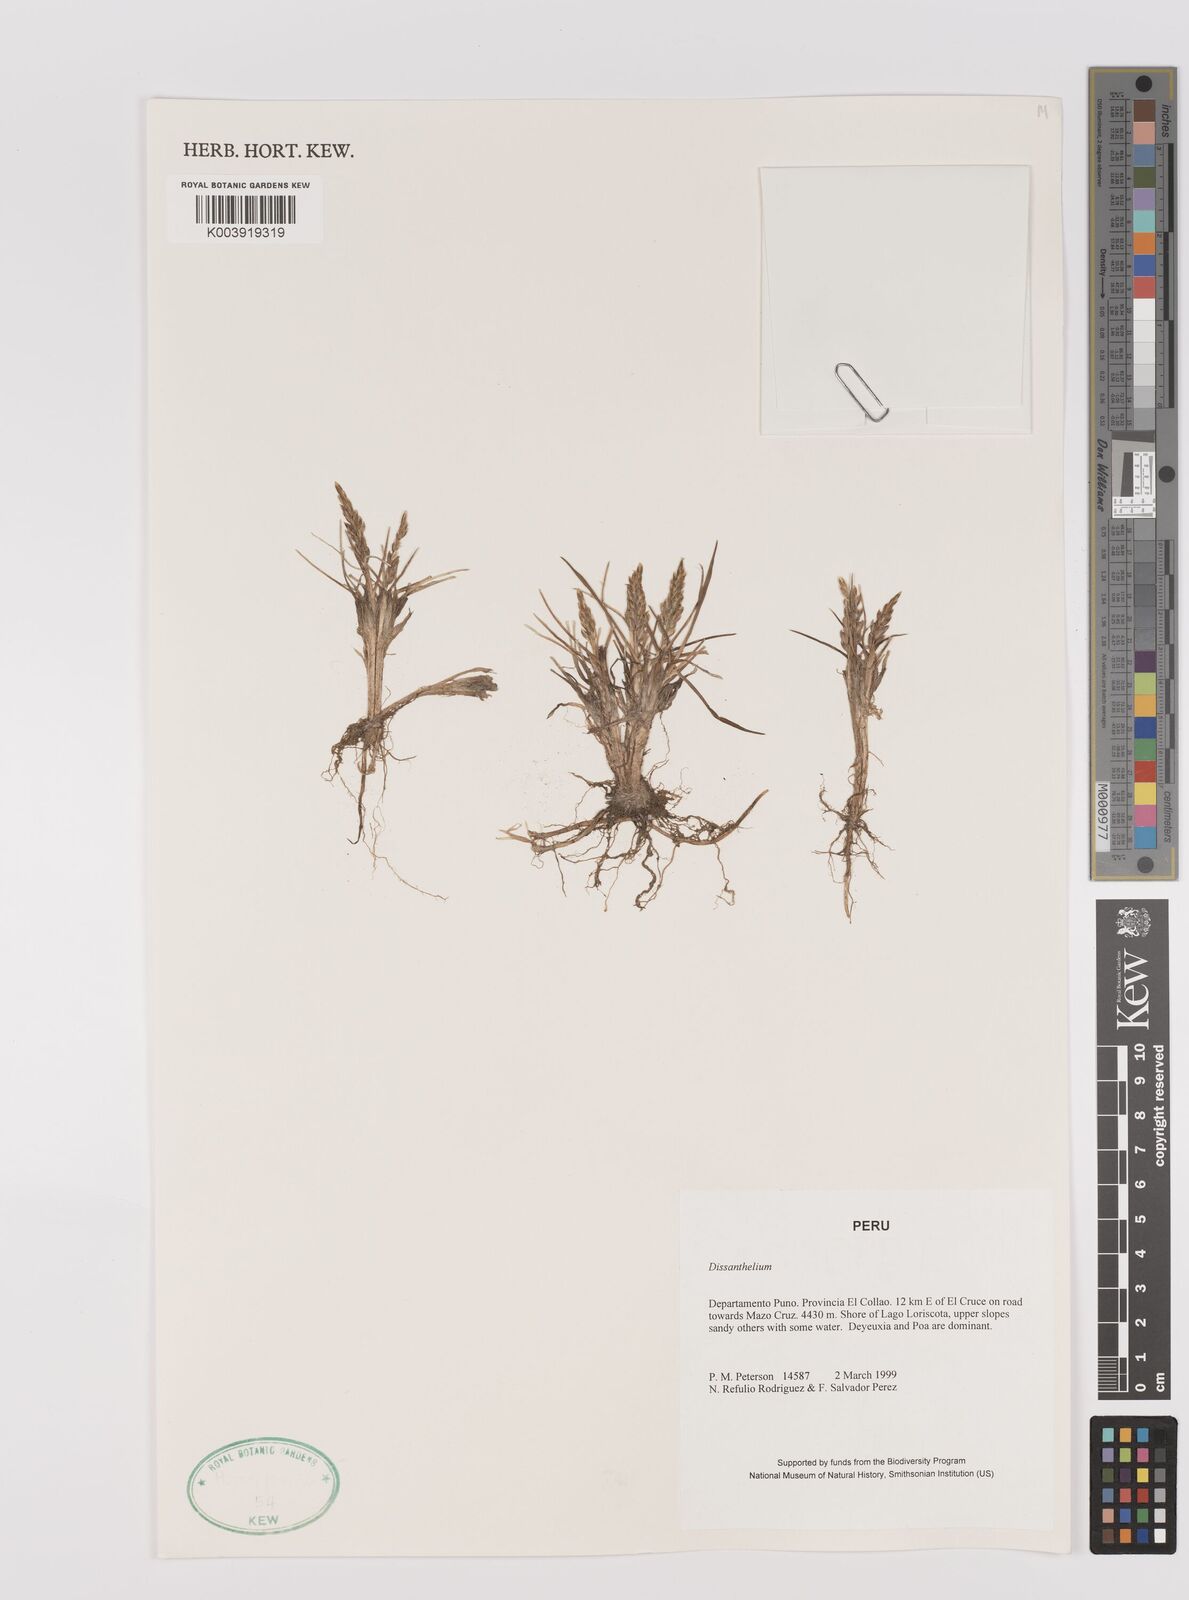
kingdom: Plantae
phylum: Tracheophyta
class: Liliopsida
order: Poales
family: Poaceae
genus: Poa
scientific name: Poa
